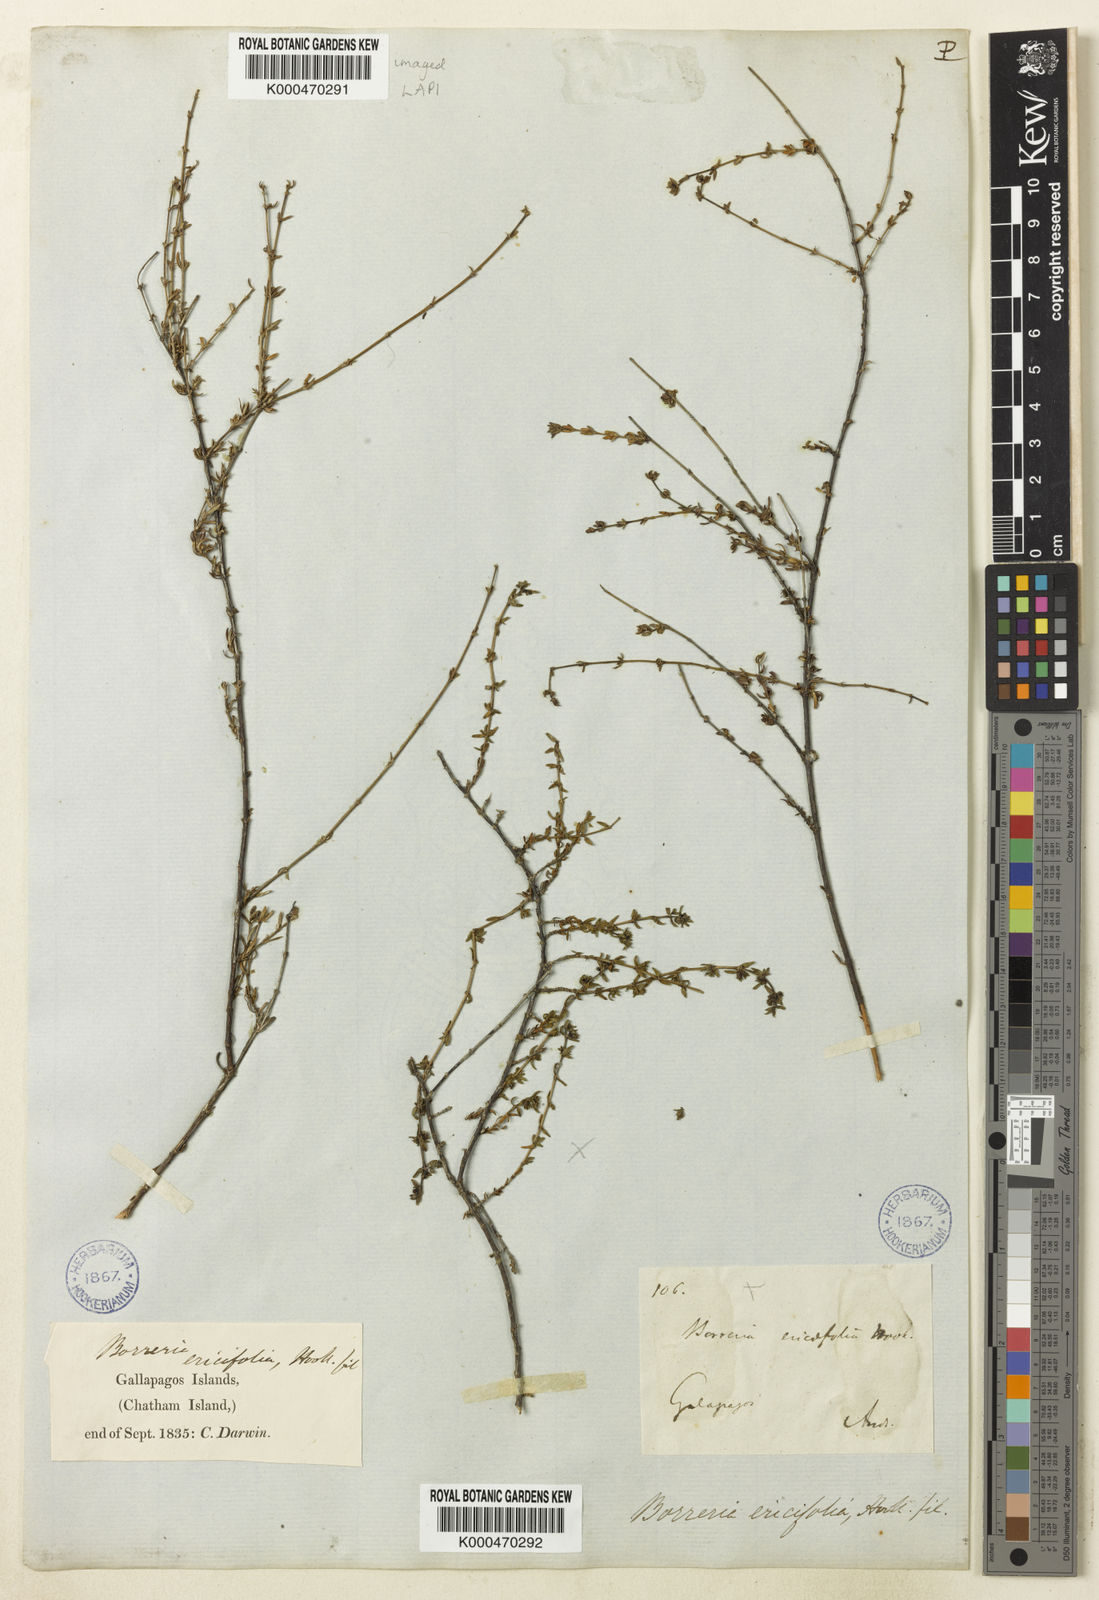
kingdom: Plantae
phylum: Tracheophyta
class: Magnoliopsida
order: Gentianales
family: Rubiaceae
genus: Spermacoce
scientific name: Spermacoce divaricata
